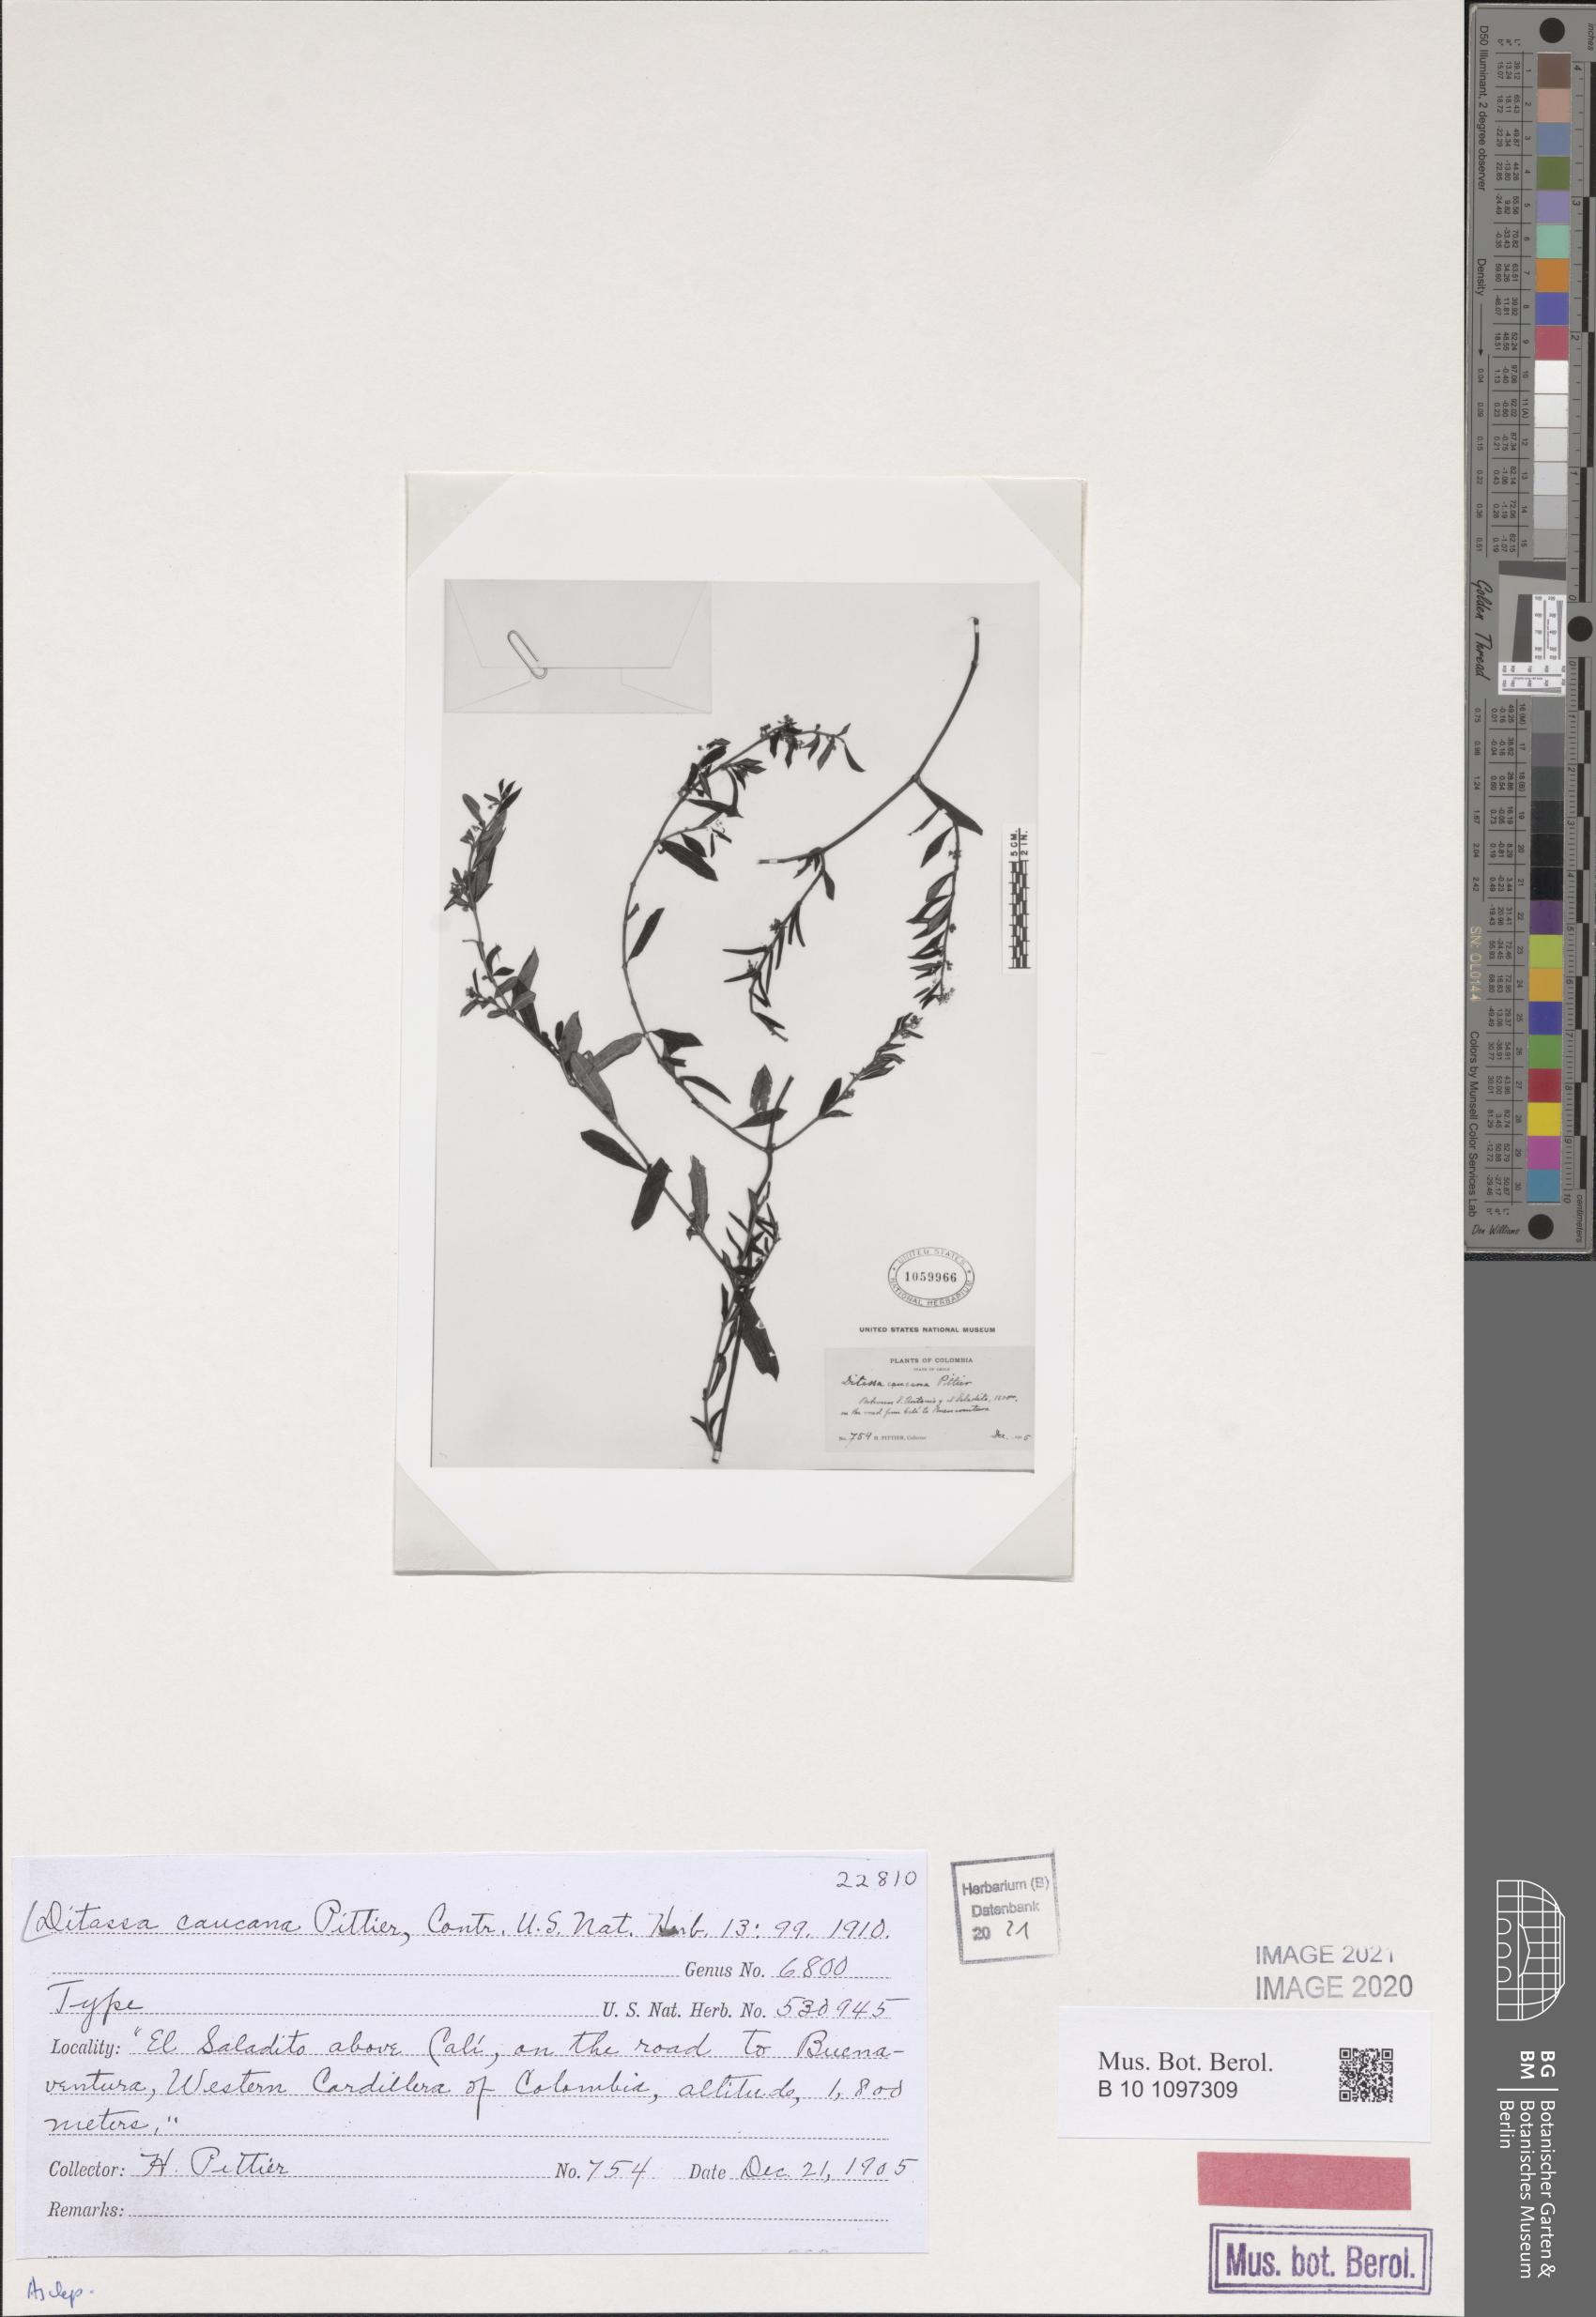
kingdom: Plantae
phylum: Tracheophyta
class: Magnoliopsida
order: Gentianales
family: Apocynaceae
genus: Ditassa
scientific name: Ditassa caucana
